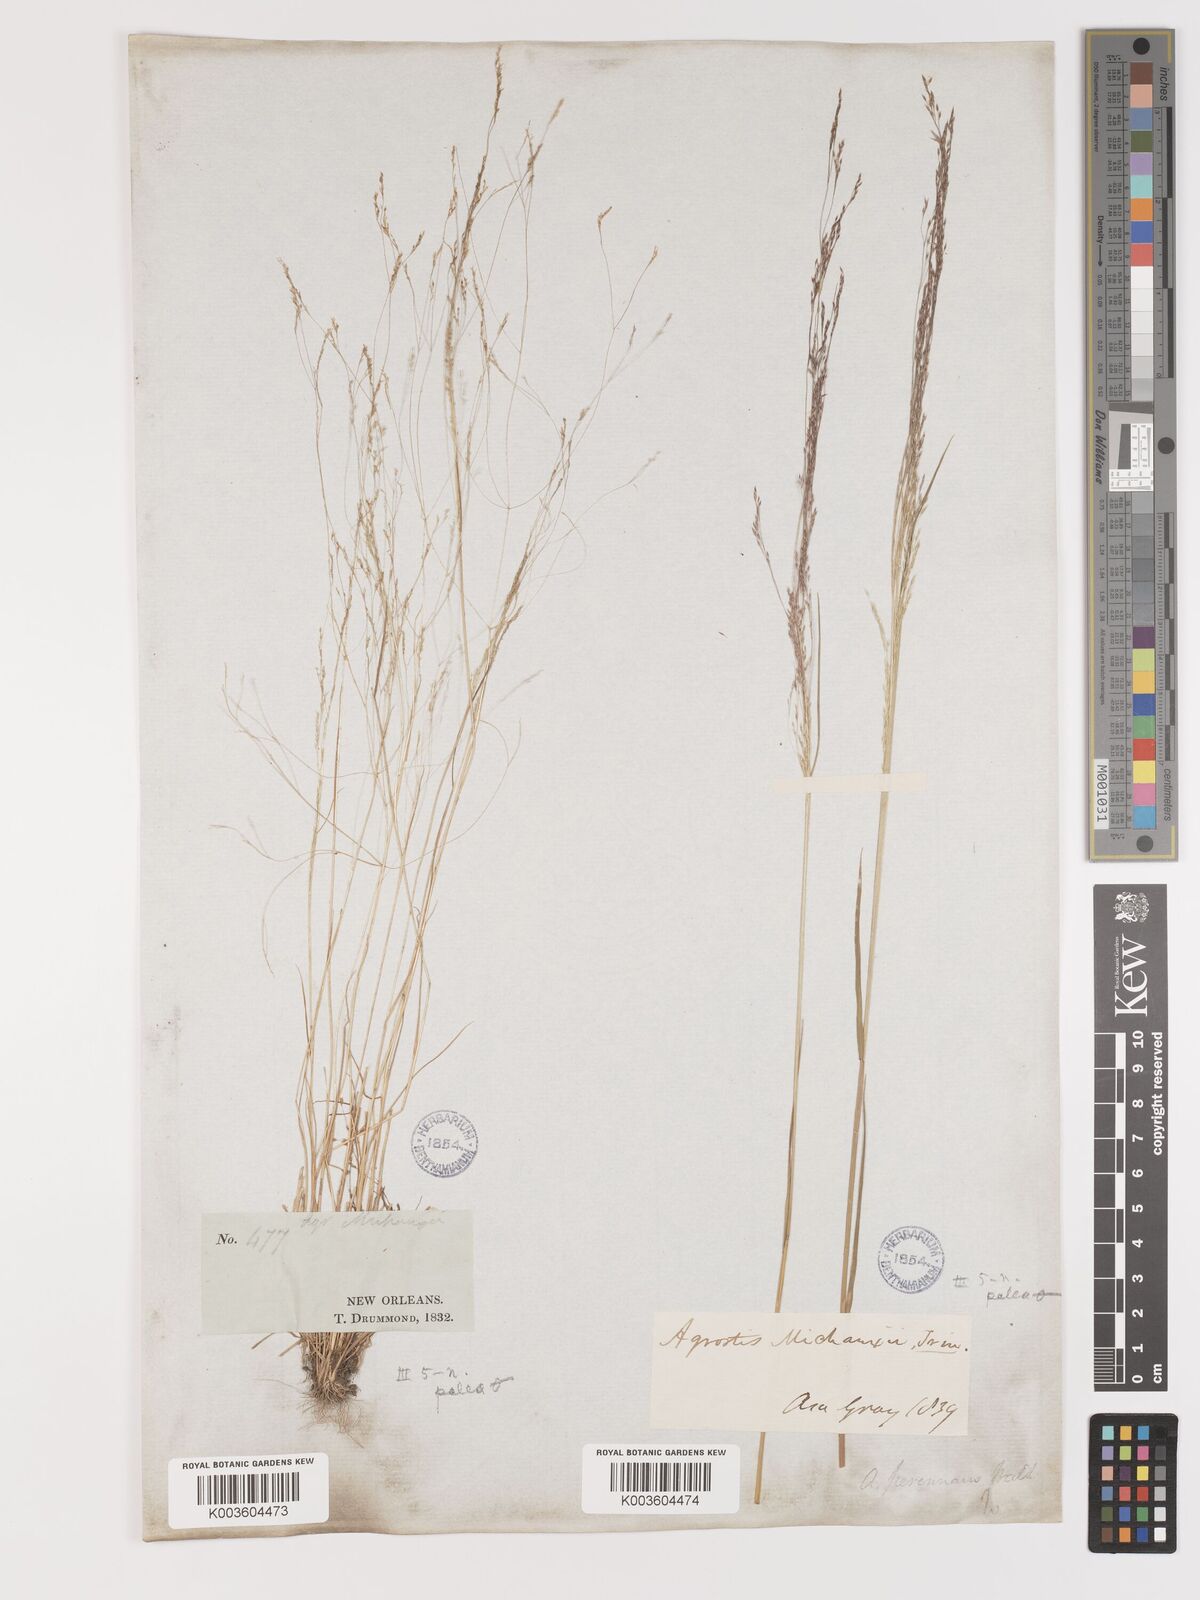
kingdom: Plantae
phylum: Tracheophyta
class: Liliopsida
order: Poales
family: Poaceae
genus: Agrostis
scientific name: Agrostis hyemalis
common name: Small bent
